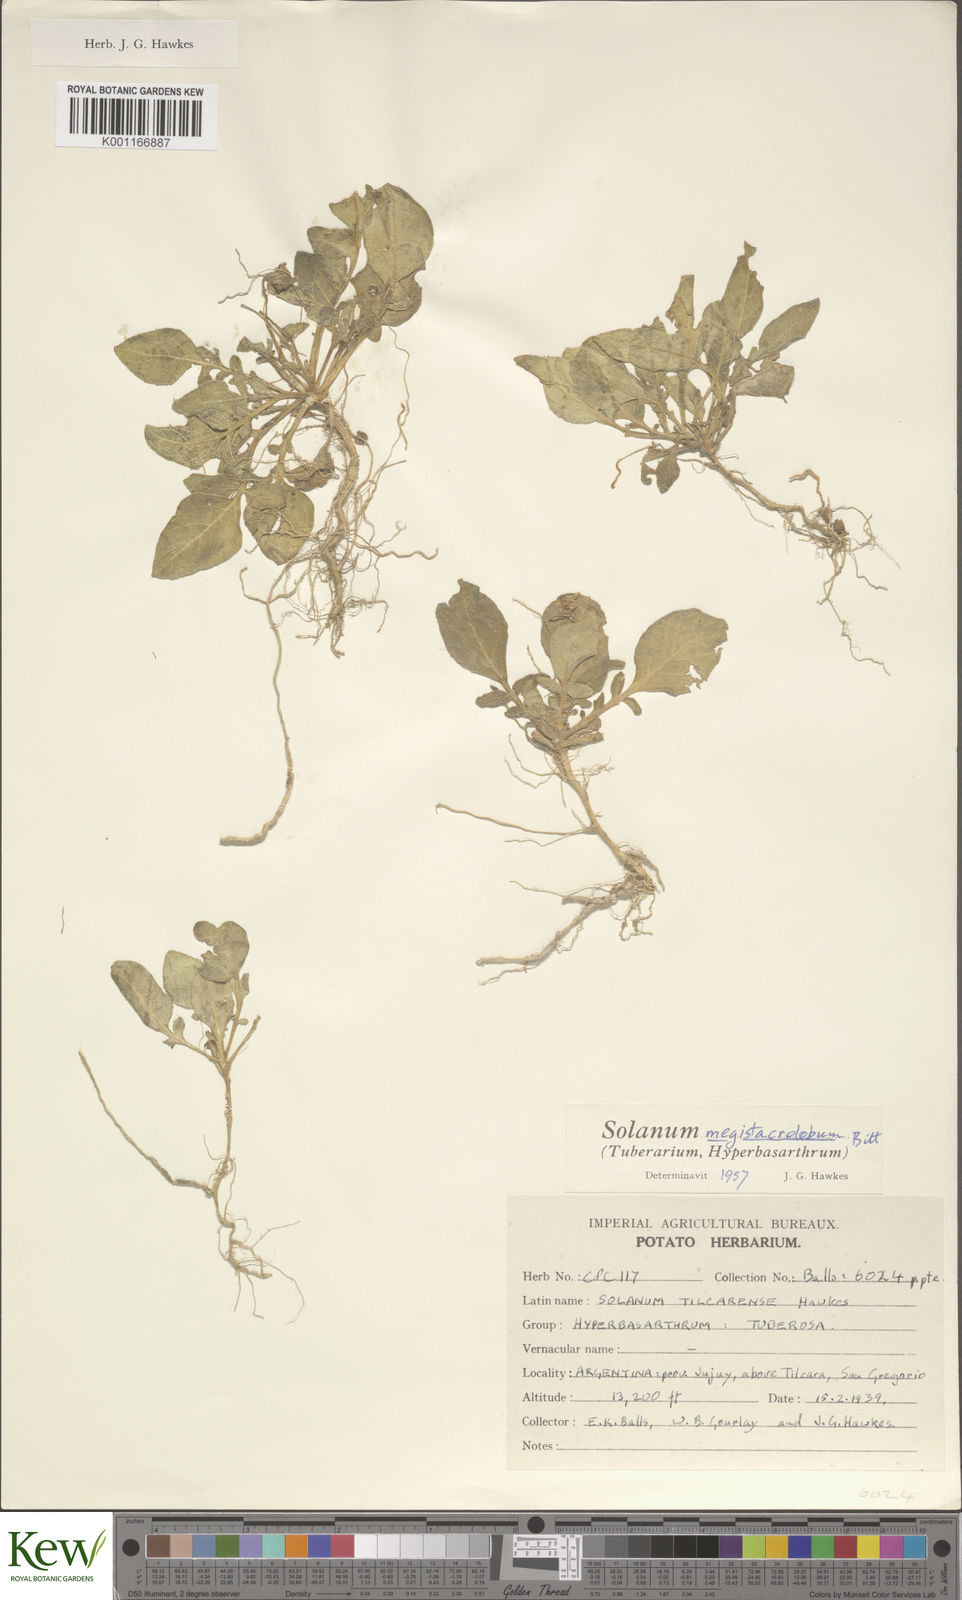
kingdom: Plantae
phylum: Tracheophyta
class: Magnoliopsida
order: Solanales
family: Solanaceae
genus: Solanum
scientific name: Solanum boliviense
